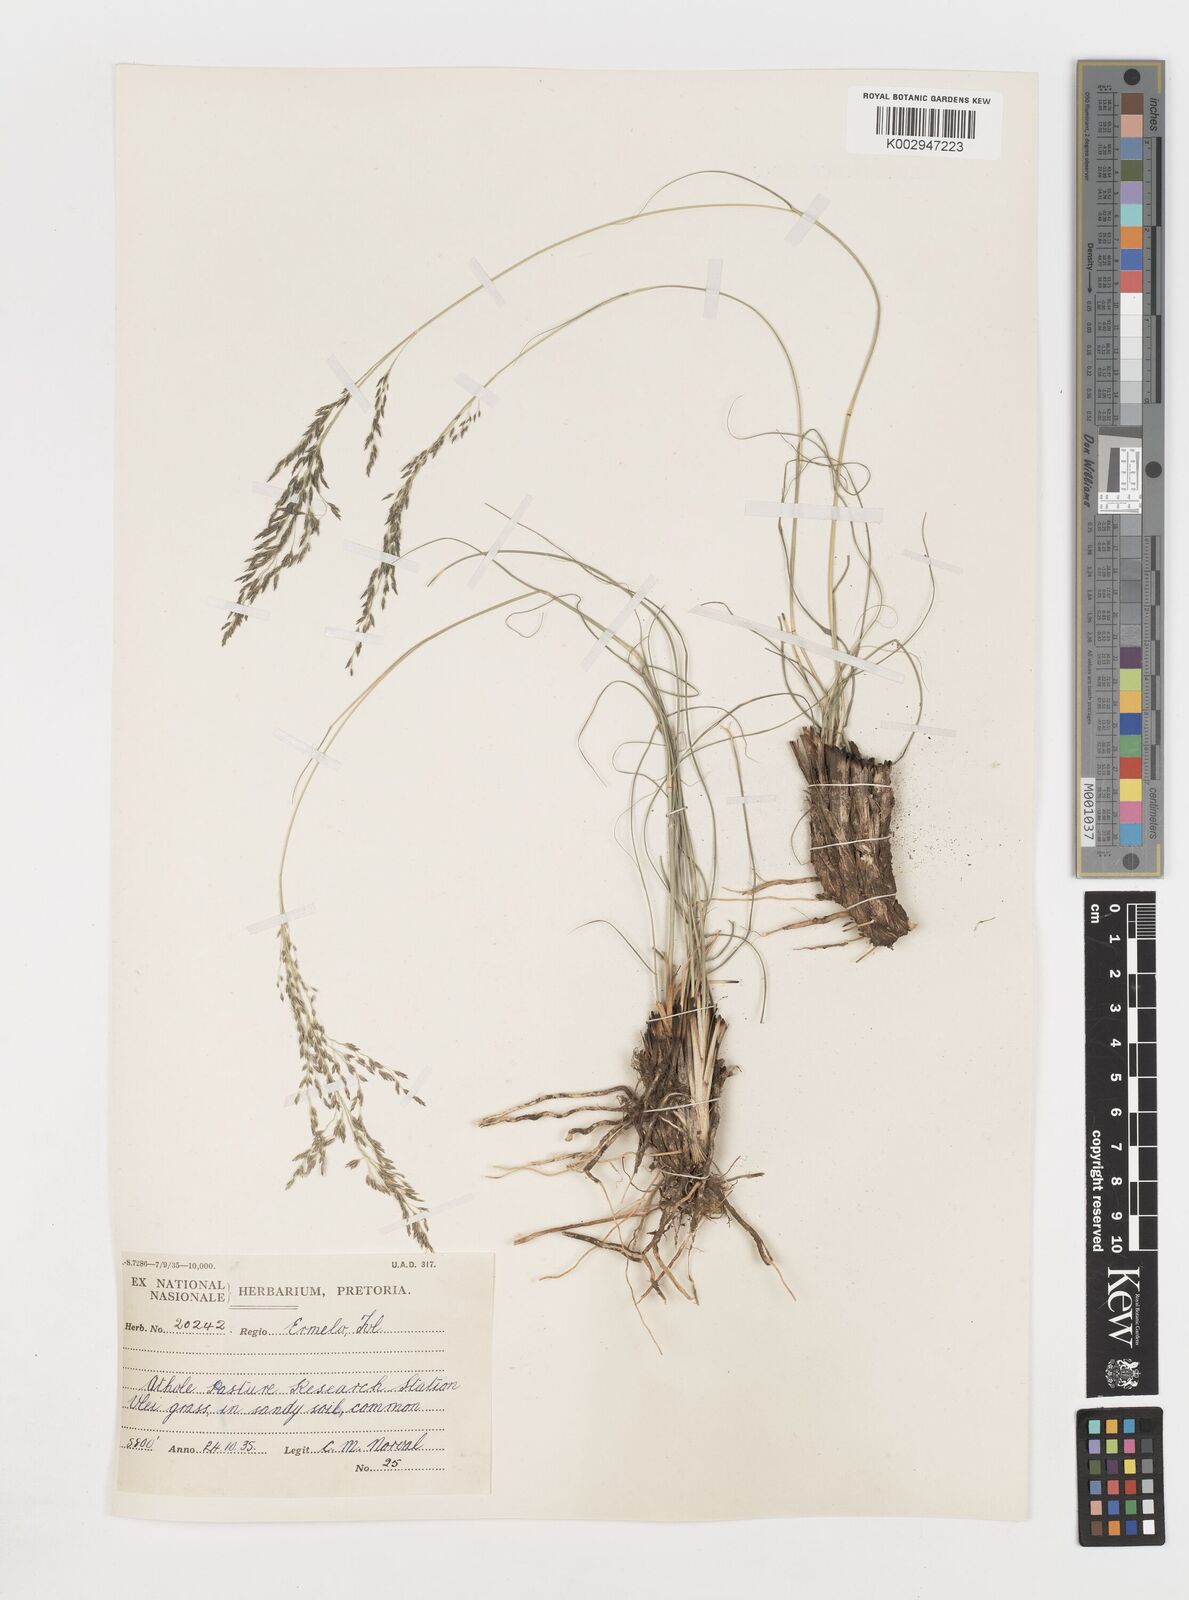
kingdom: Plantae
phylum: Tracheophyta
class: Liliopsida
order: Poales
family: Poaceae
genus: Eragrostis
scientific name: Eragrostis
